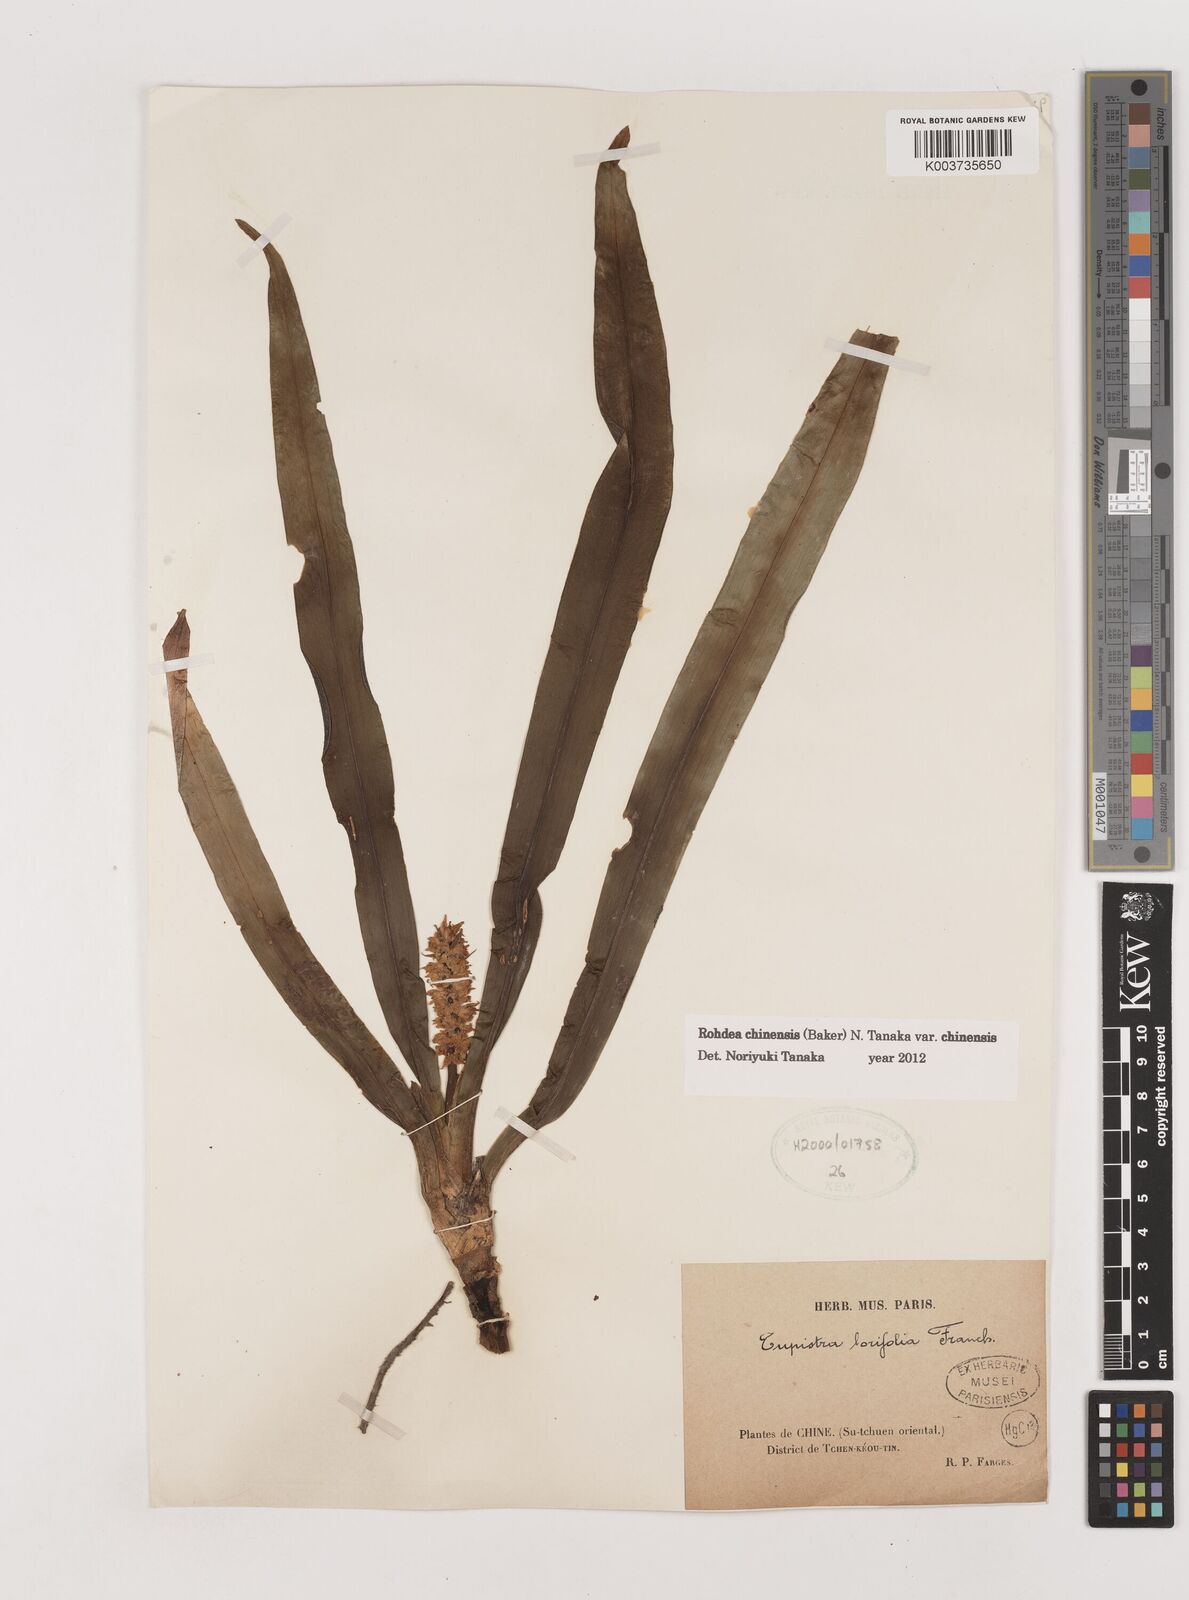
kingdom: Plantae
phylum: Tracheophyta
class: Liliopsida
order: Asparagales
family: Asparagaceae
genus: Rohdea
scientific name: Rohdea fargesii
